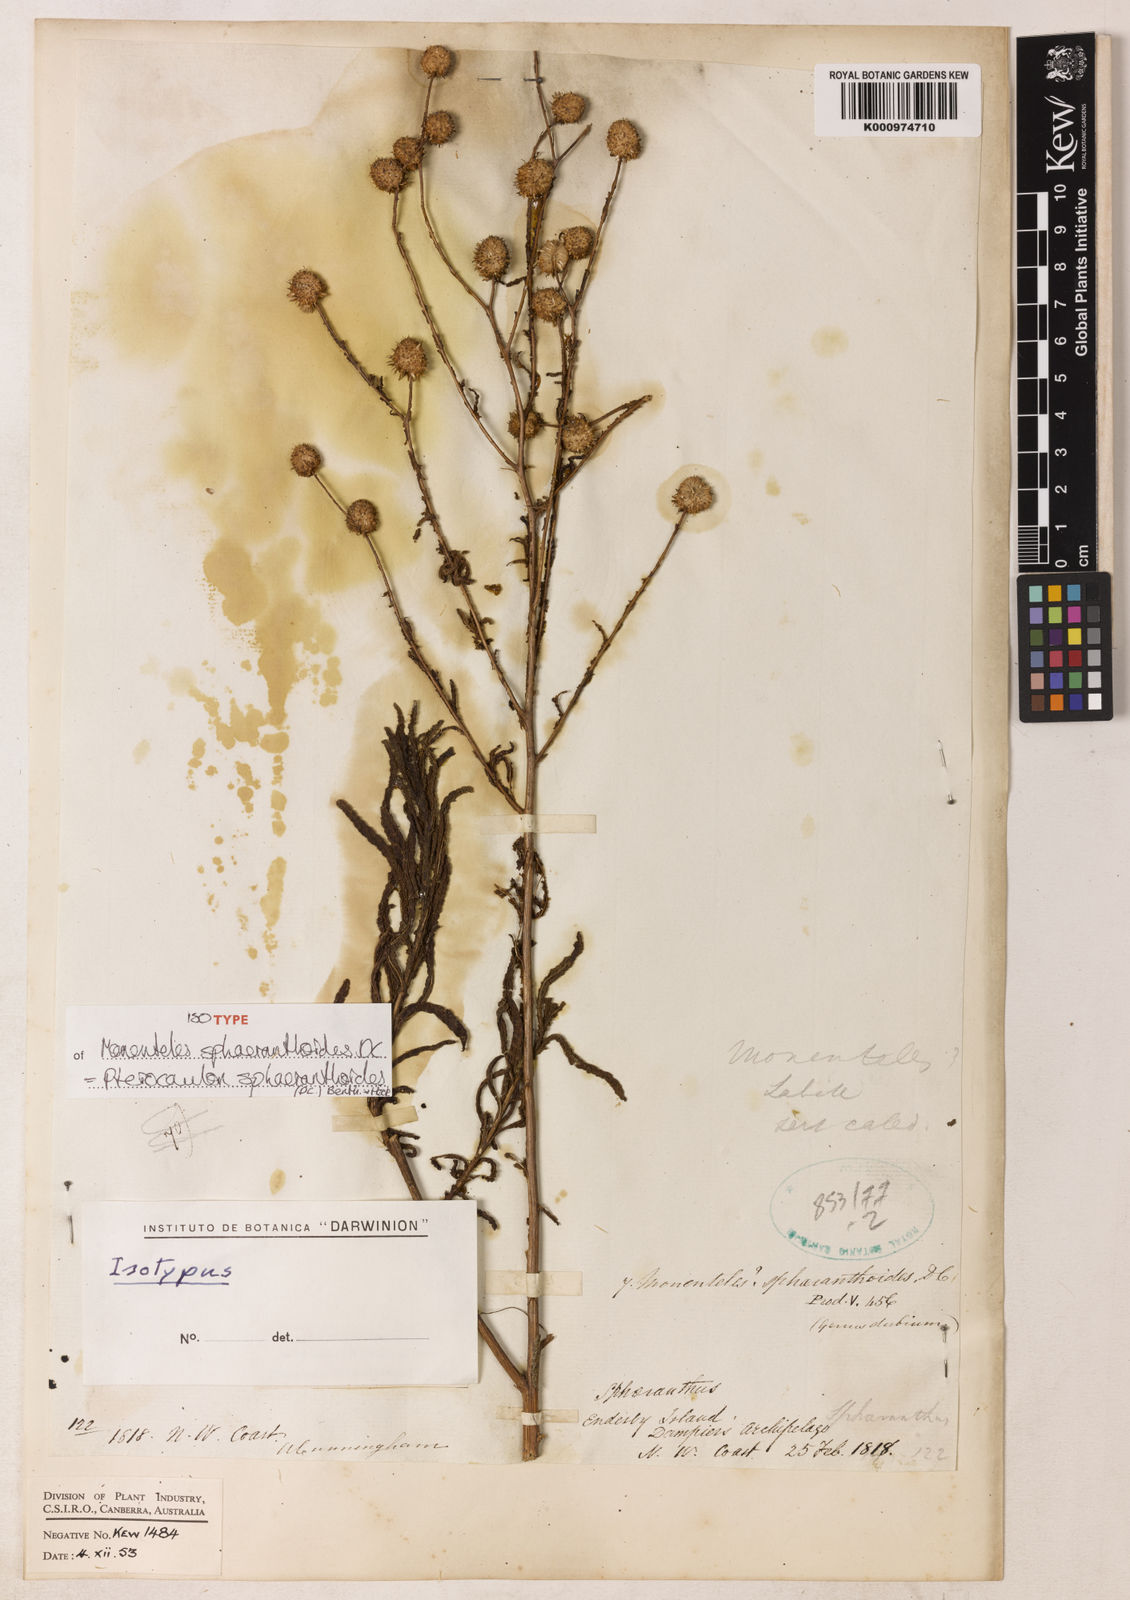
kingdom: Plantae
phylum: Tracheophyta
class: Magnoliopsida
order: Asterales
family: Asteraceae
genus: Pterocaulon
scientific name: Pterocaulon sphaeranthoides
